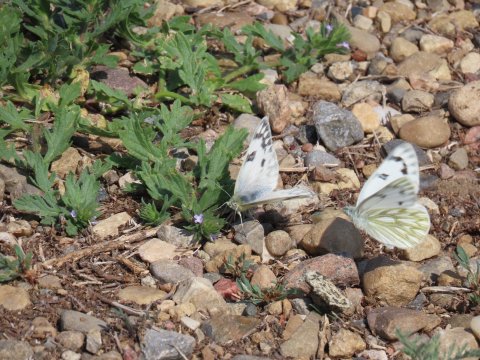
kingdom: Animalia
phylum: Arthropoda
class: Insecta
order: Lepidoptera
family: Pieridae
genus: Pontia
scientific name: Pontia occidentalis
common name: Western White
